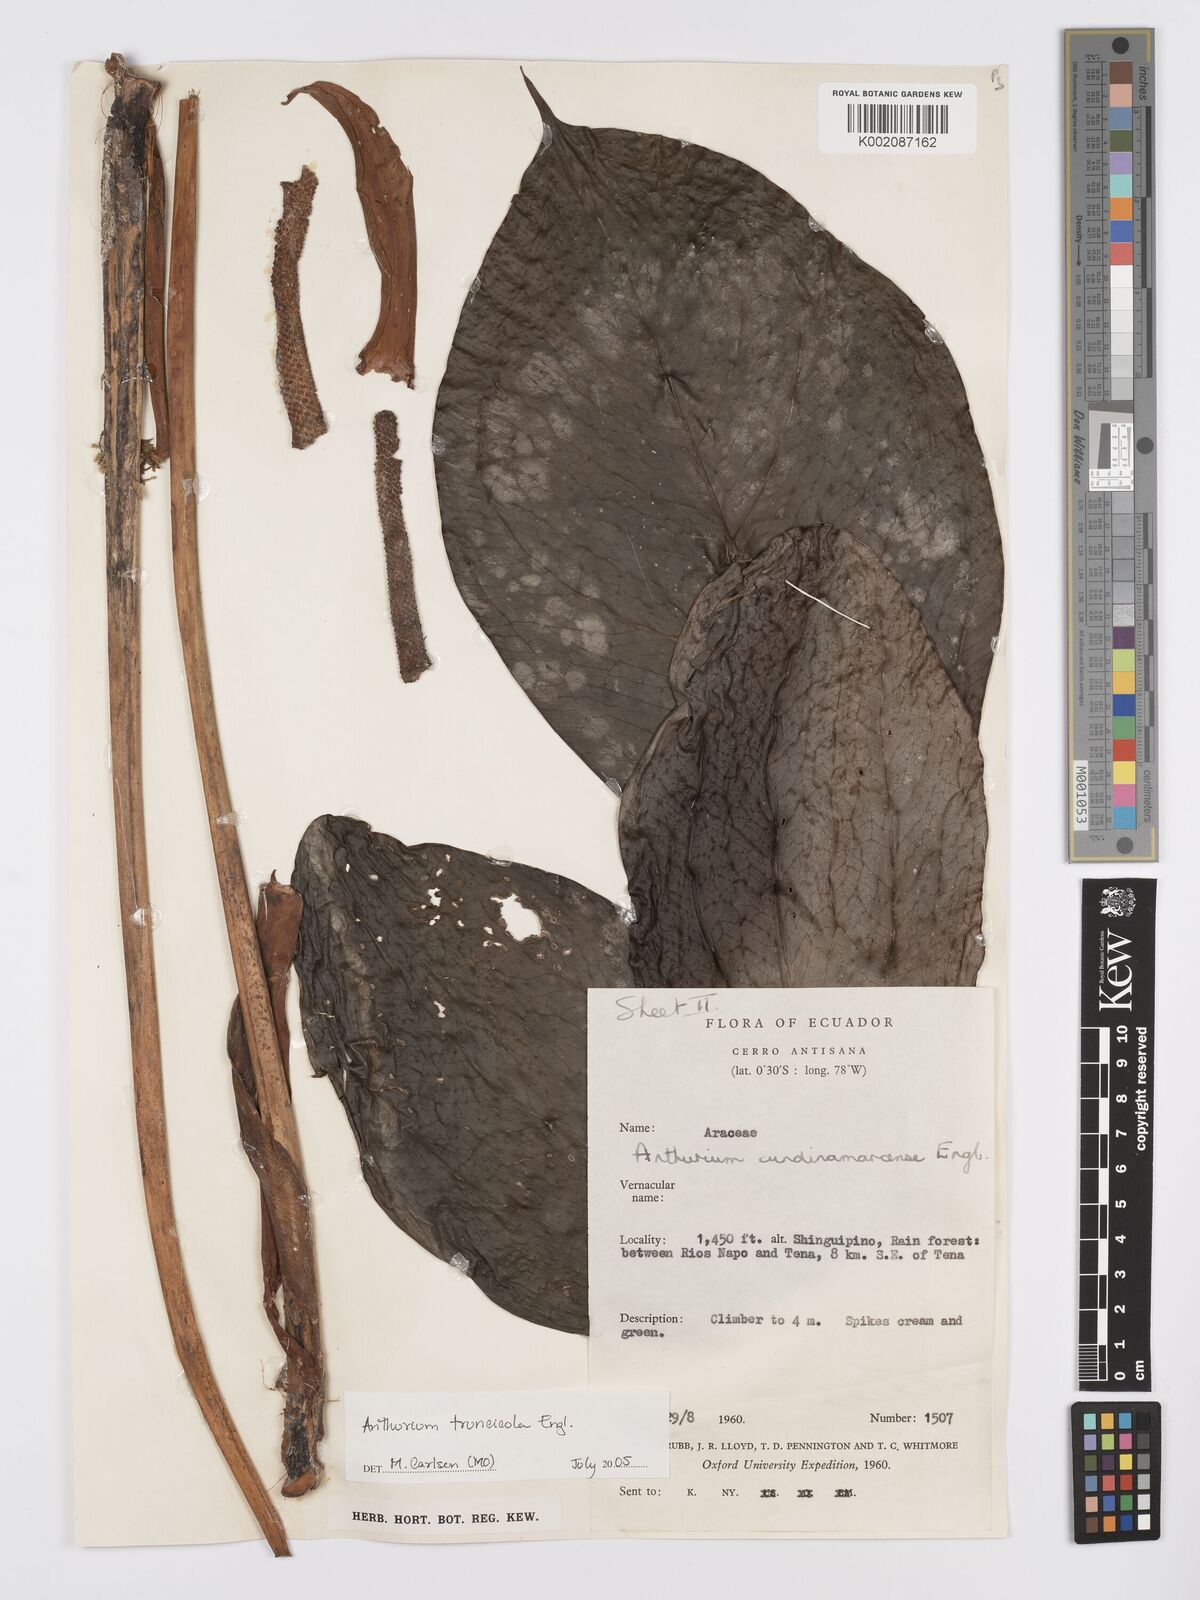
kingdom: Plantae
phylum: Tracheophyta
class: Liliopsida
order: Alismatales
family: Araceae
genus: Anthurium
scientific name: Anthurium truncicola
